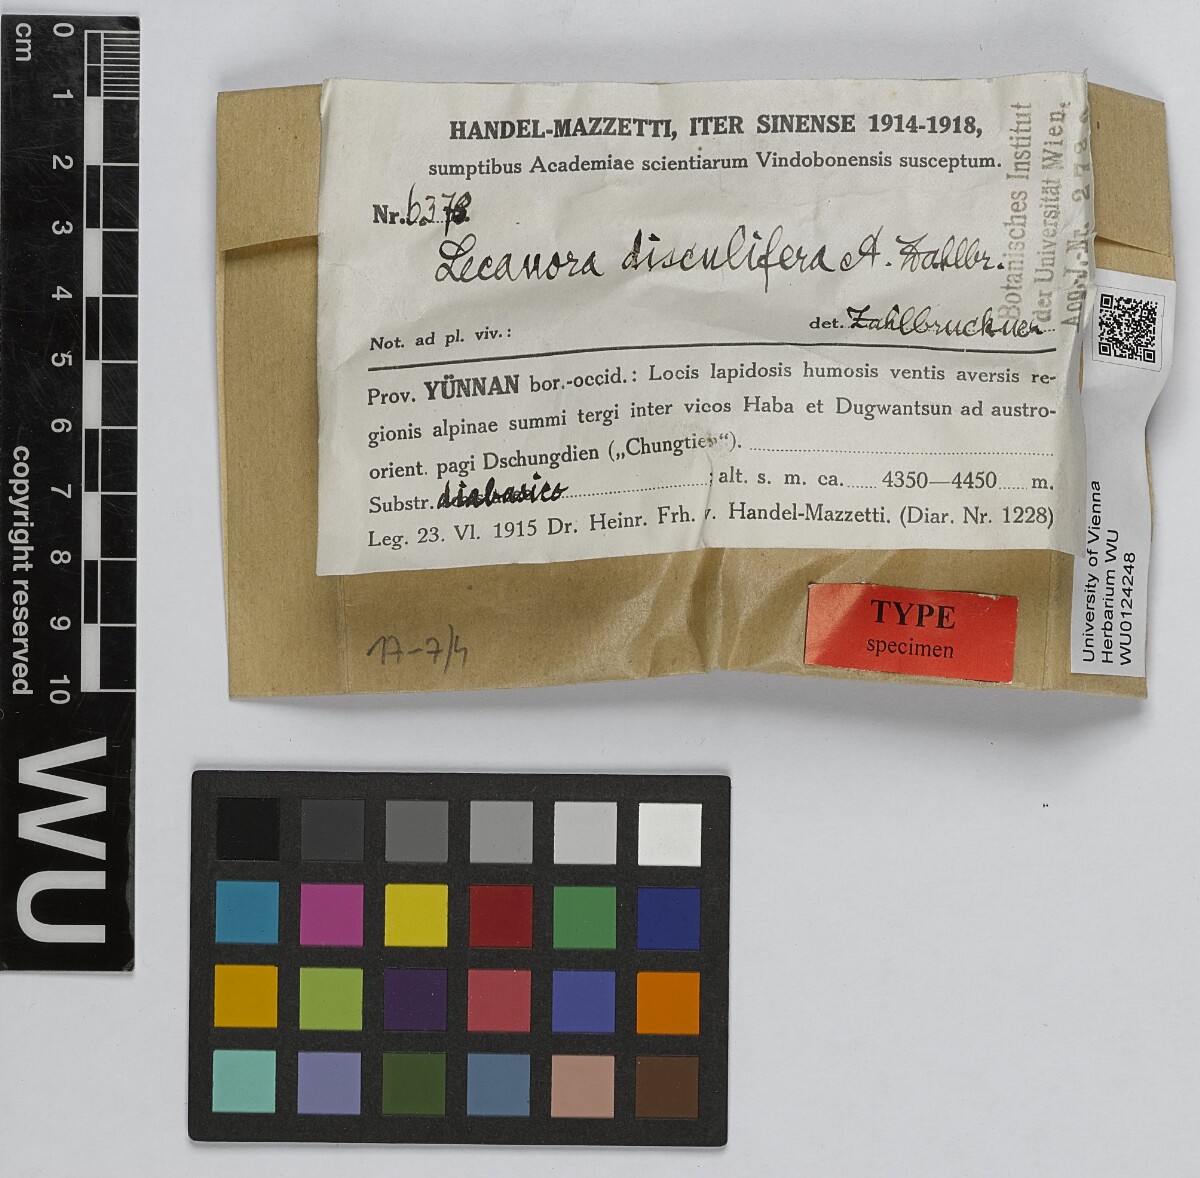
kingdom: Fungi
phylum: Ascomycota
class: Lecanoromycetes
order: Lecanorales
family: Lecanoraceae
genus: Lecanora
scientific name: Lecanora
